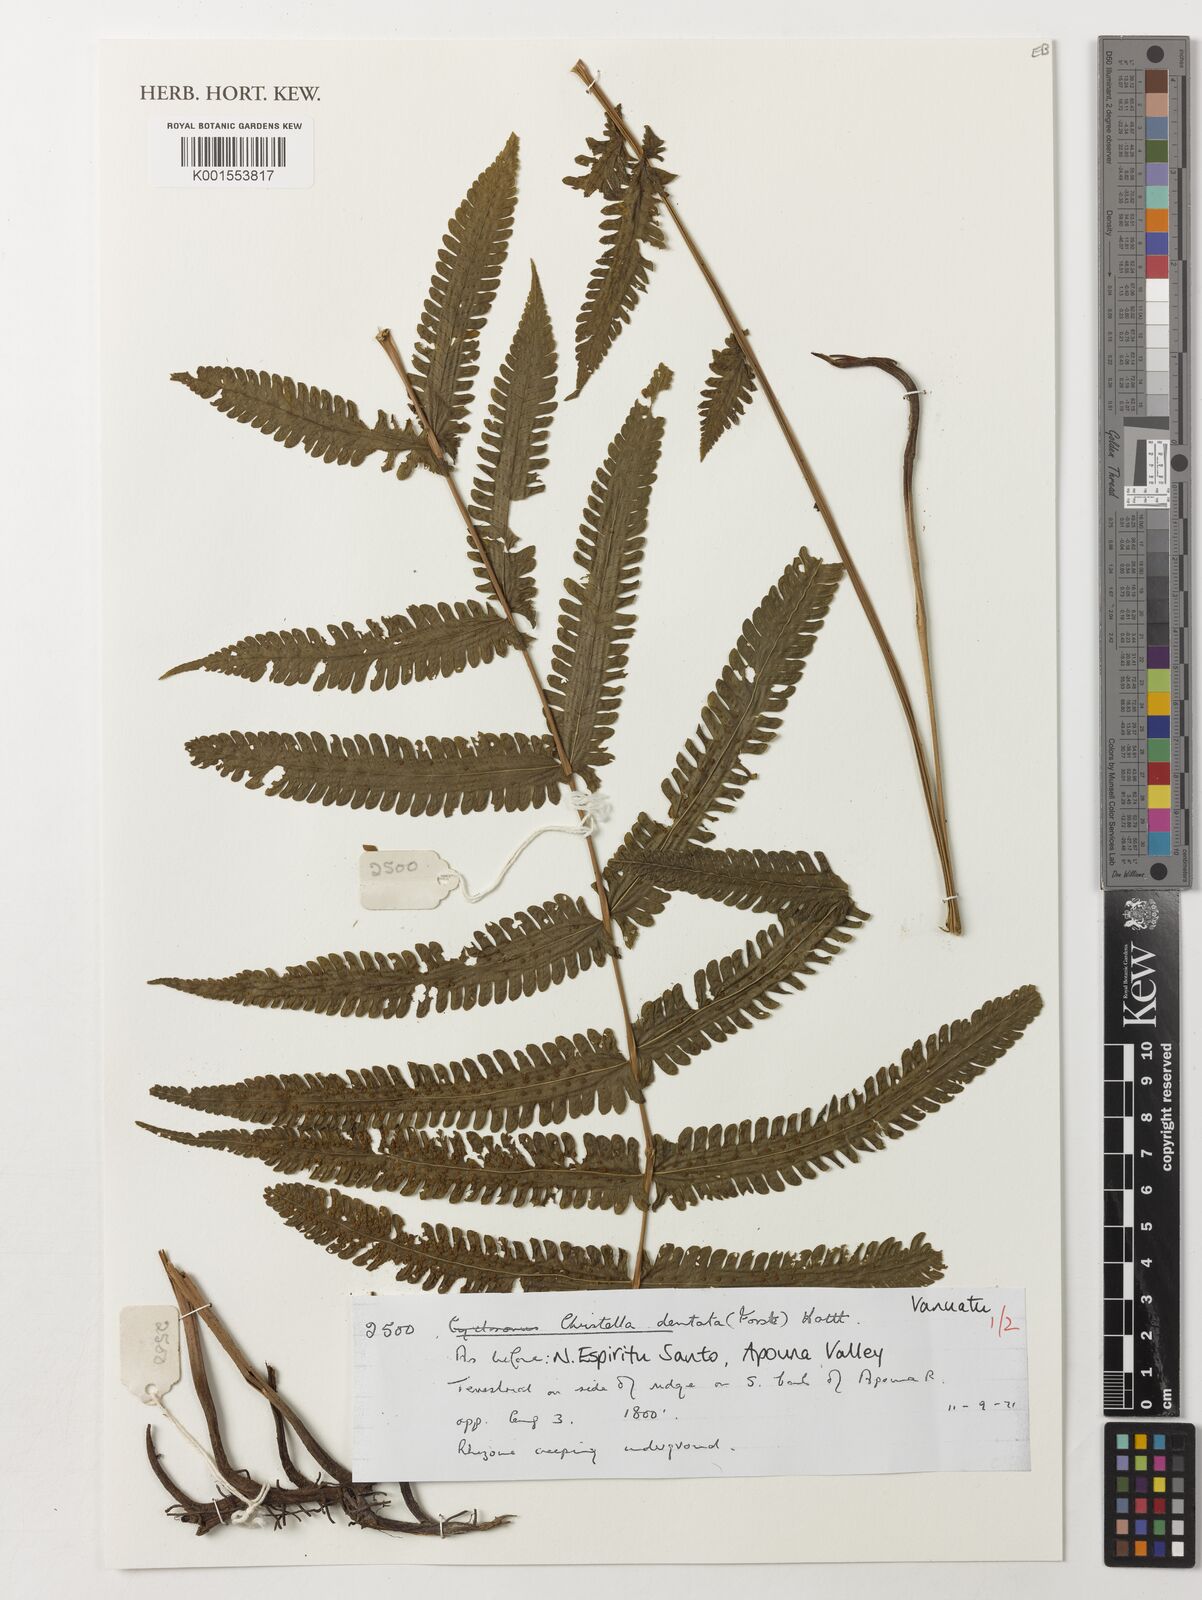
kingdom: Plantae
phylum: Tracheophyta
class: Polypodiopsida
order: Polypodiales
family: Thelypteridaceae
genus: Christella
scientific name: Christella dentata
